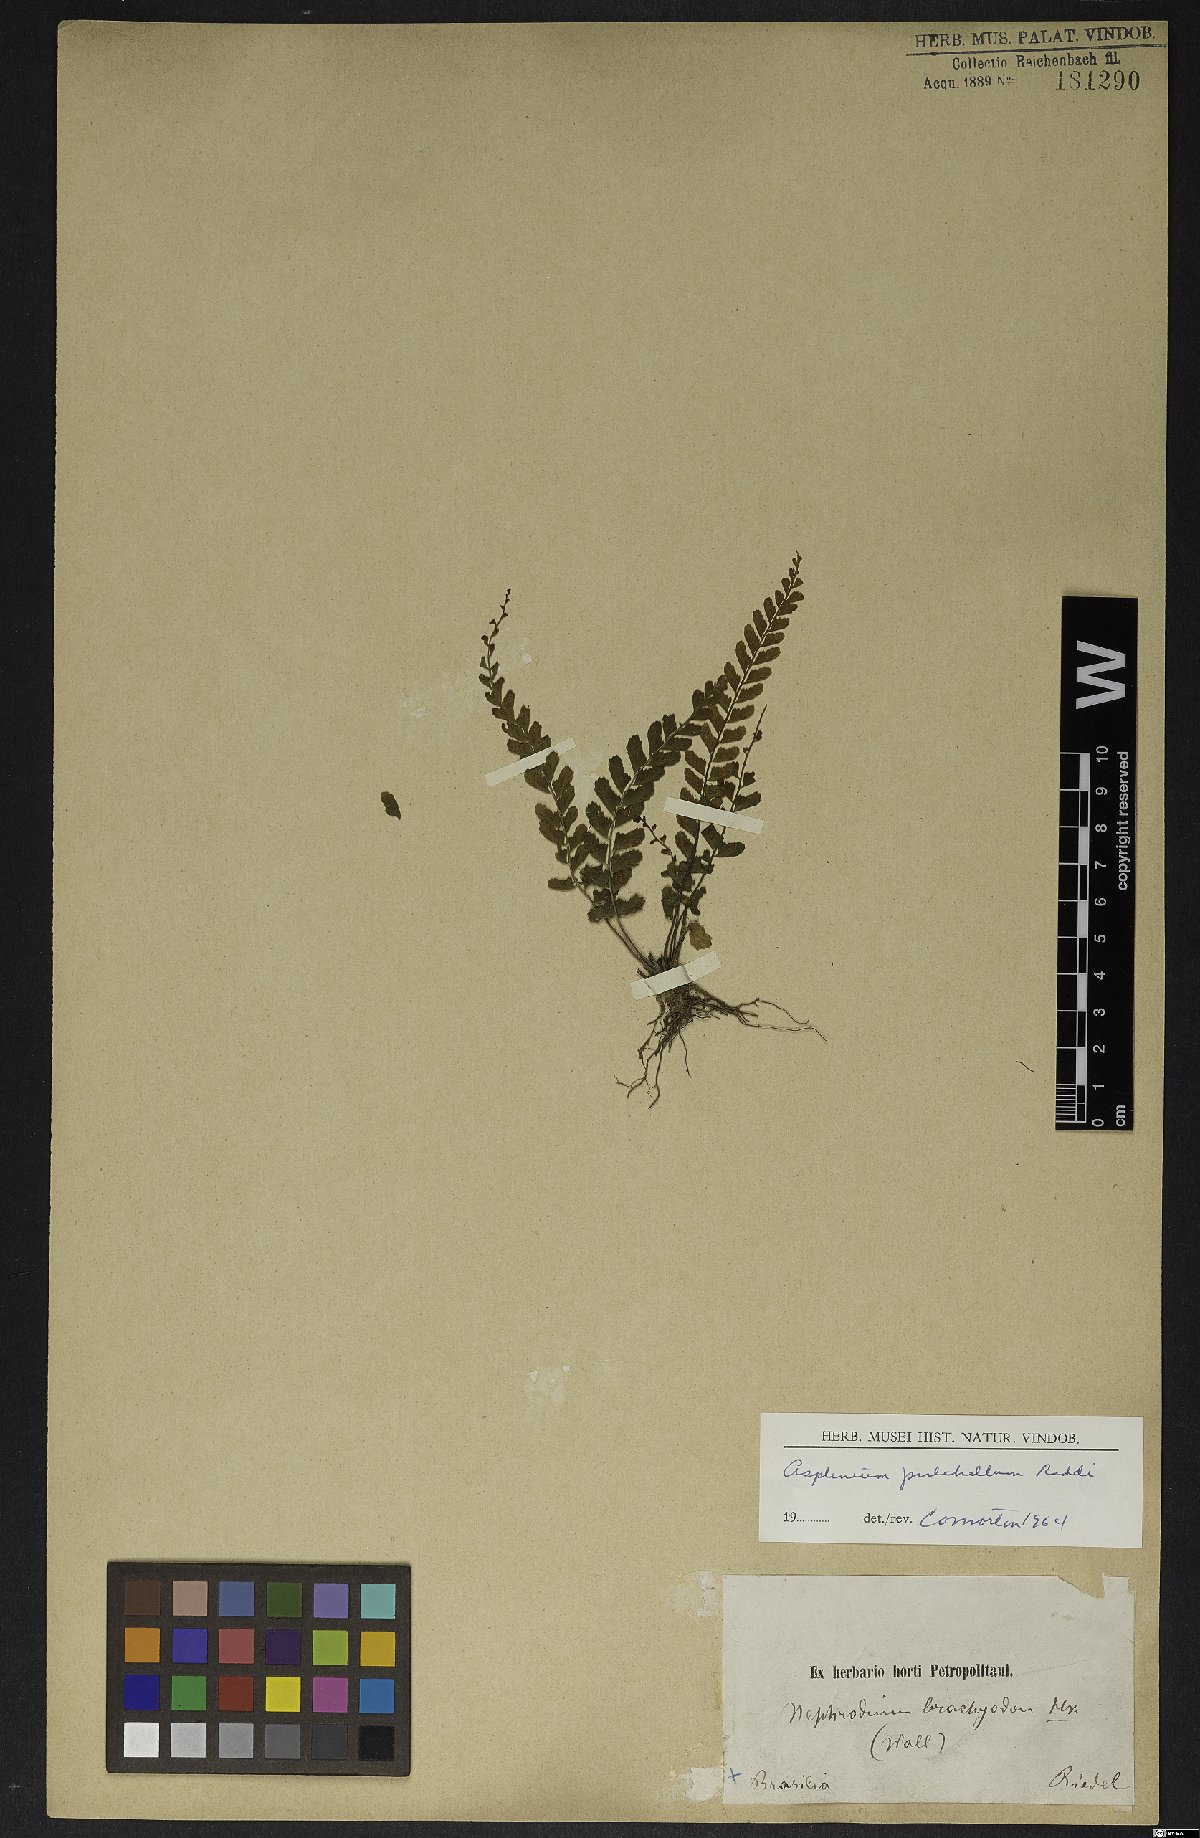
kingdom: Plantae
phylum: Tracheophyta
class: Polypodiopsida
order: Polypodiales
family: Aspleniaceae
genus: Asplenium
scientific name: Asplenium pulchellum
